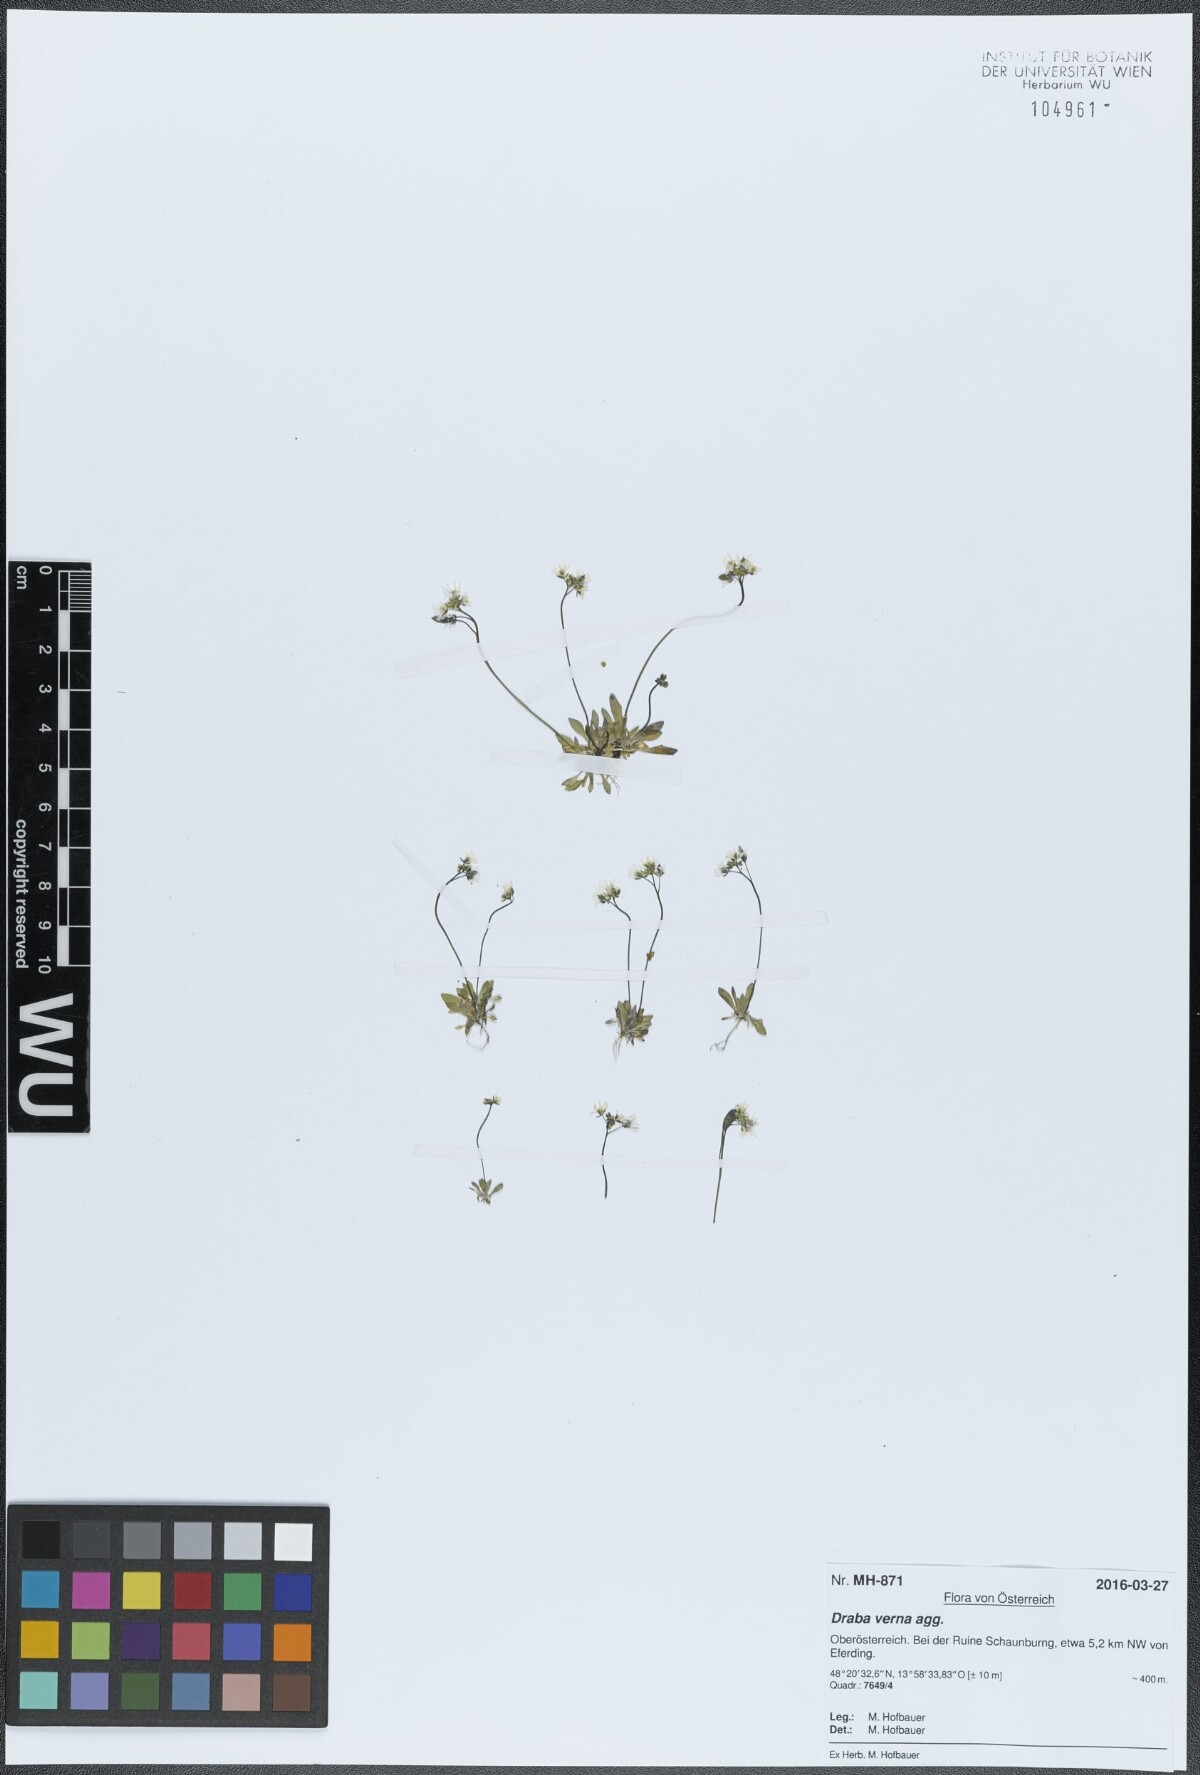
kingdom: Plantae
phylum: Tracheophyta
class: Magnoliopsida
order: Brassicales
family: Brassicaceae
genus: Draba
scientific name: Draba verna
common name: Spring draba
